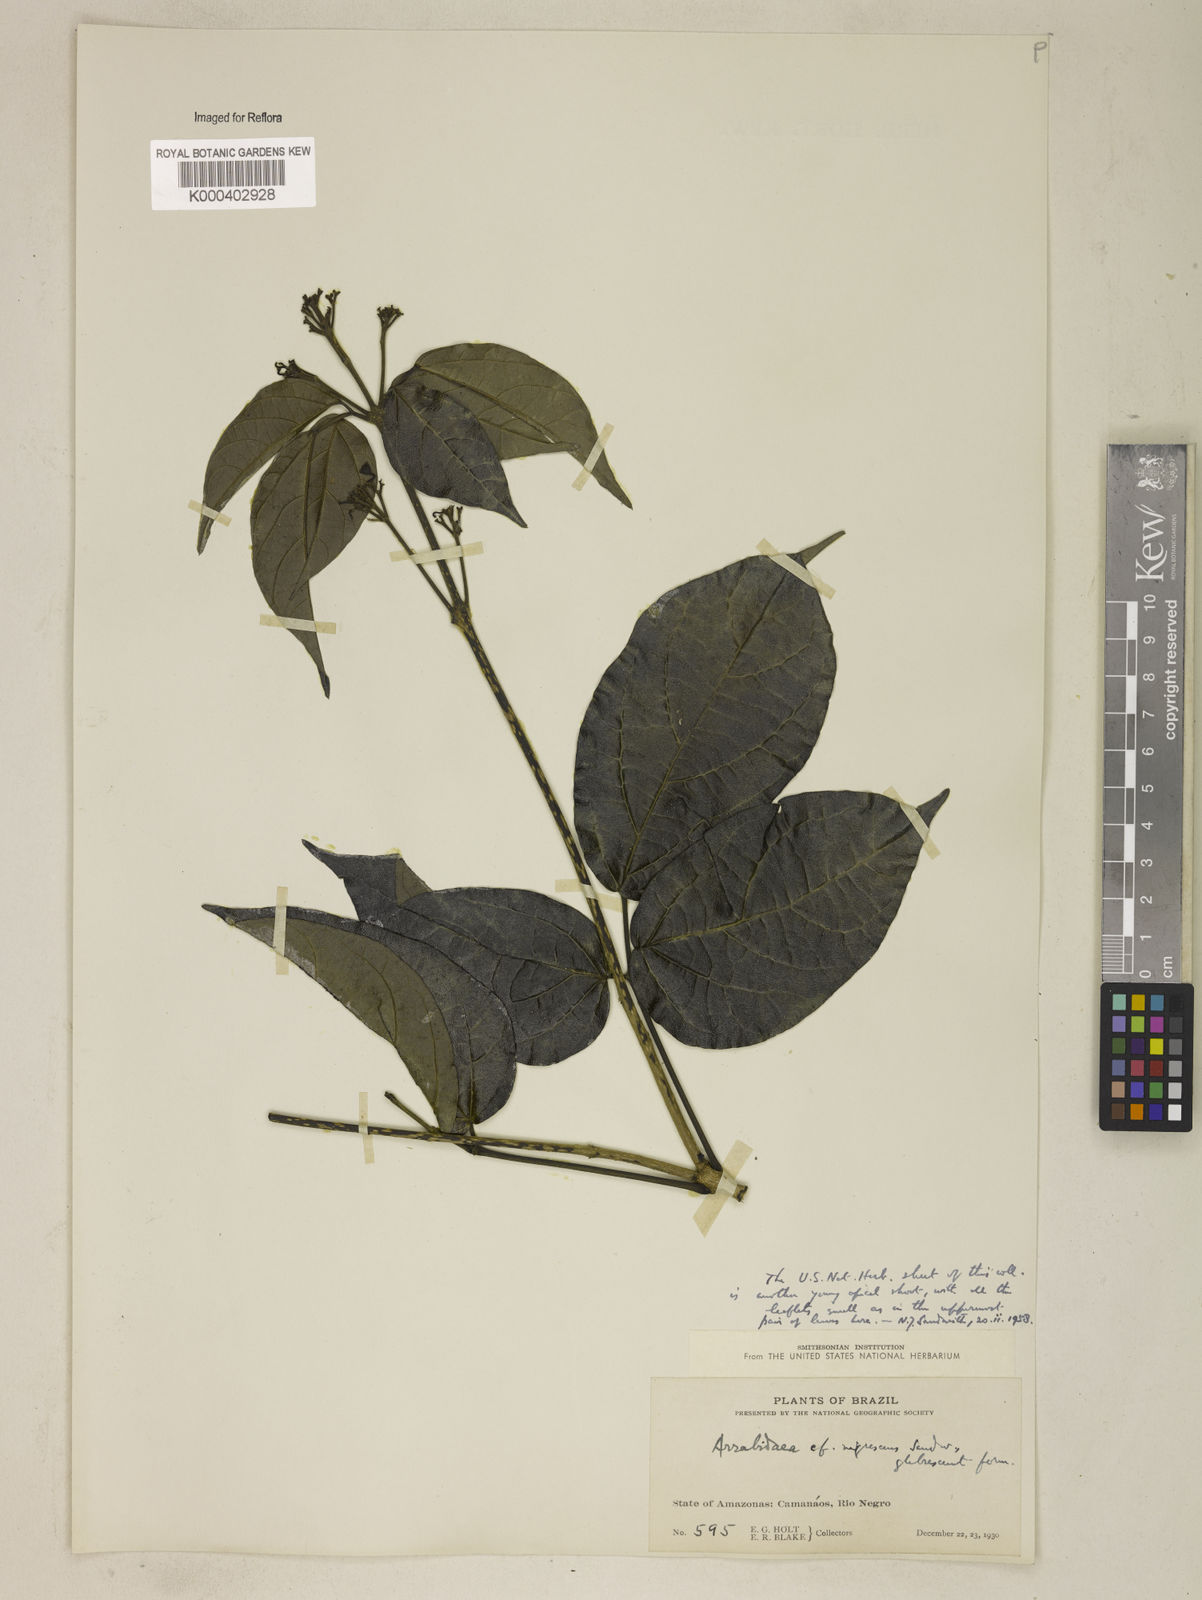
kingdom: Plantae
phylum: Tracheophyta
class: Magnoliopsida
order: Lamiales
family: Bignoniaceae
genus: Fridericia
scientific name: Fridericia nigrescens
